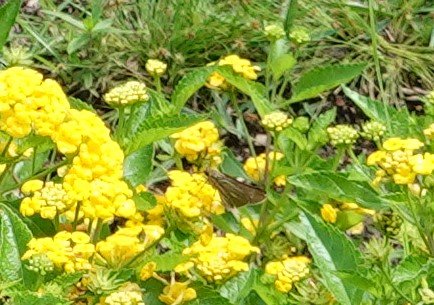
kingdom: Animalia
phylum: Arthropoda
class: Insecta
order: Lepidoptera
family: Hesperiidae
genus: Panoquina
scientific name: Panoquina panoquin
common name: Salt Marsh Skipper
